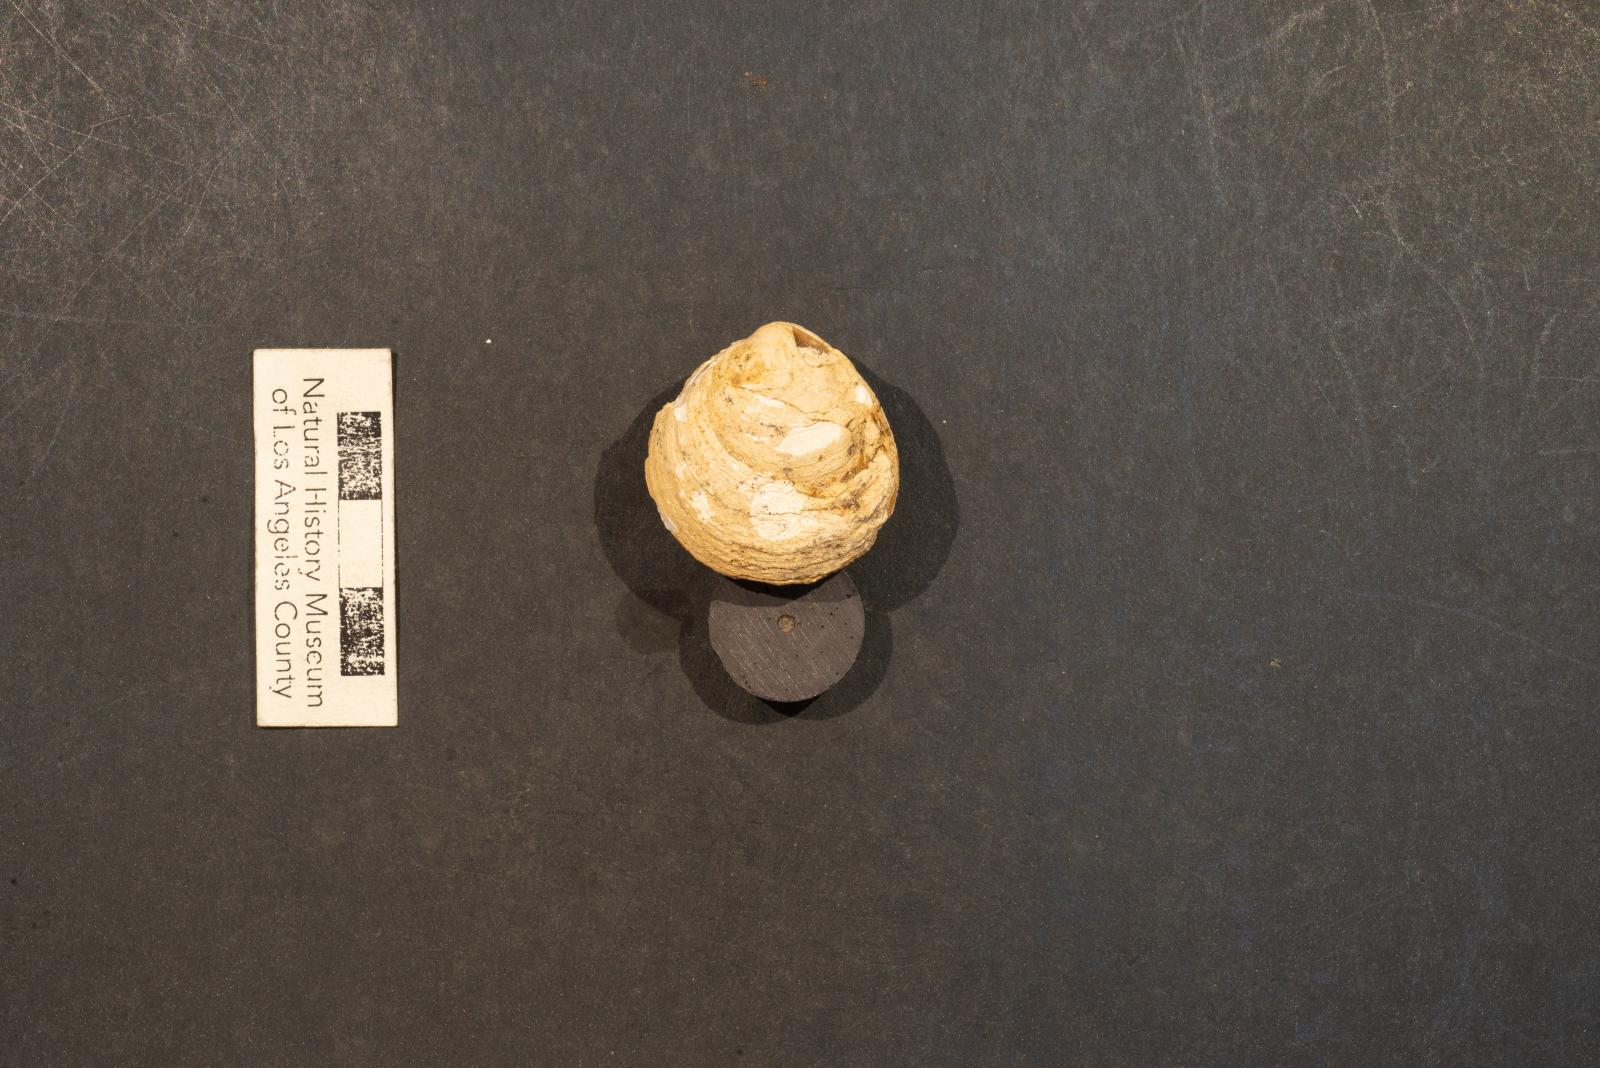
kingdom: Animalia
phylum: Mollusca
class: Bivalvia
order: Venerida
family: Veneridae
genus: Dosinia
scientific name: Dosinia lupinus
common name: Smooth artemis
